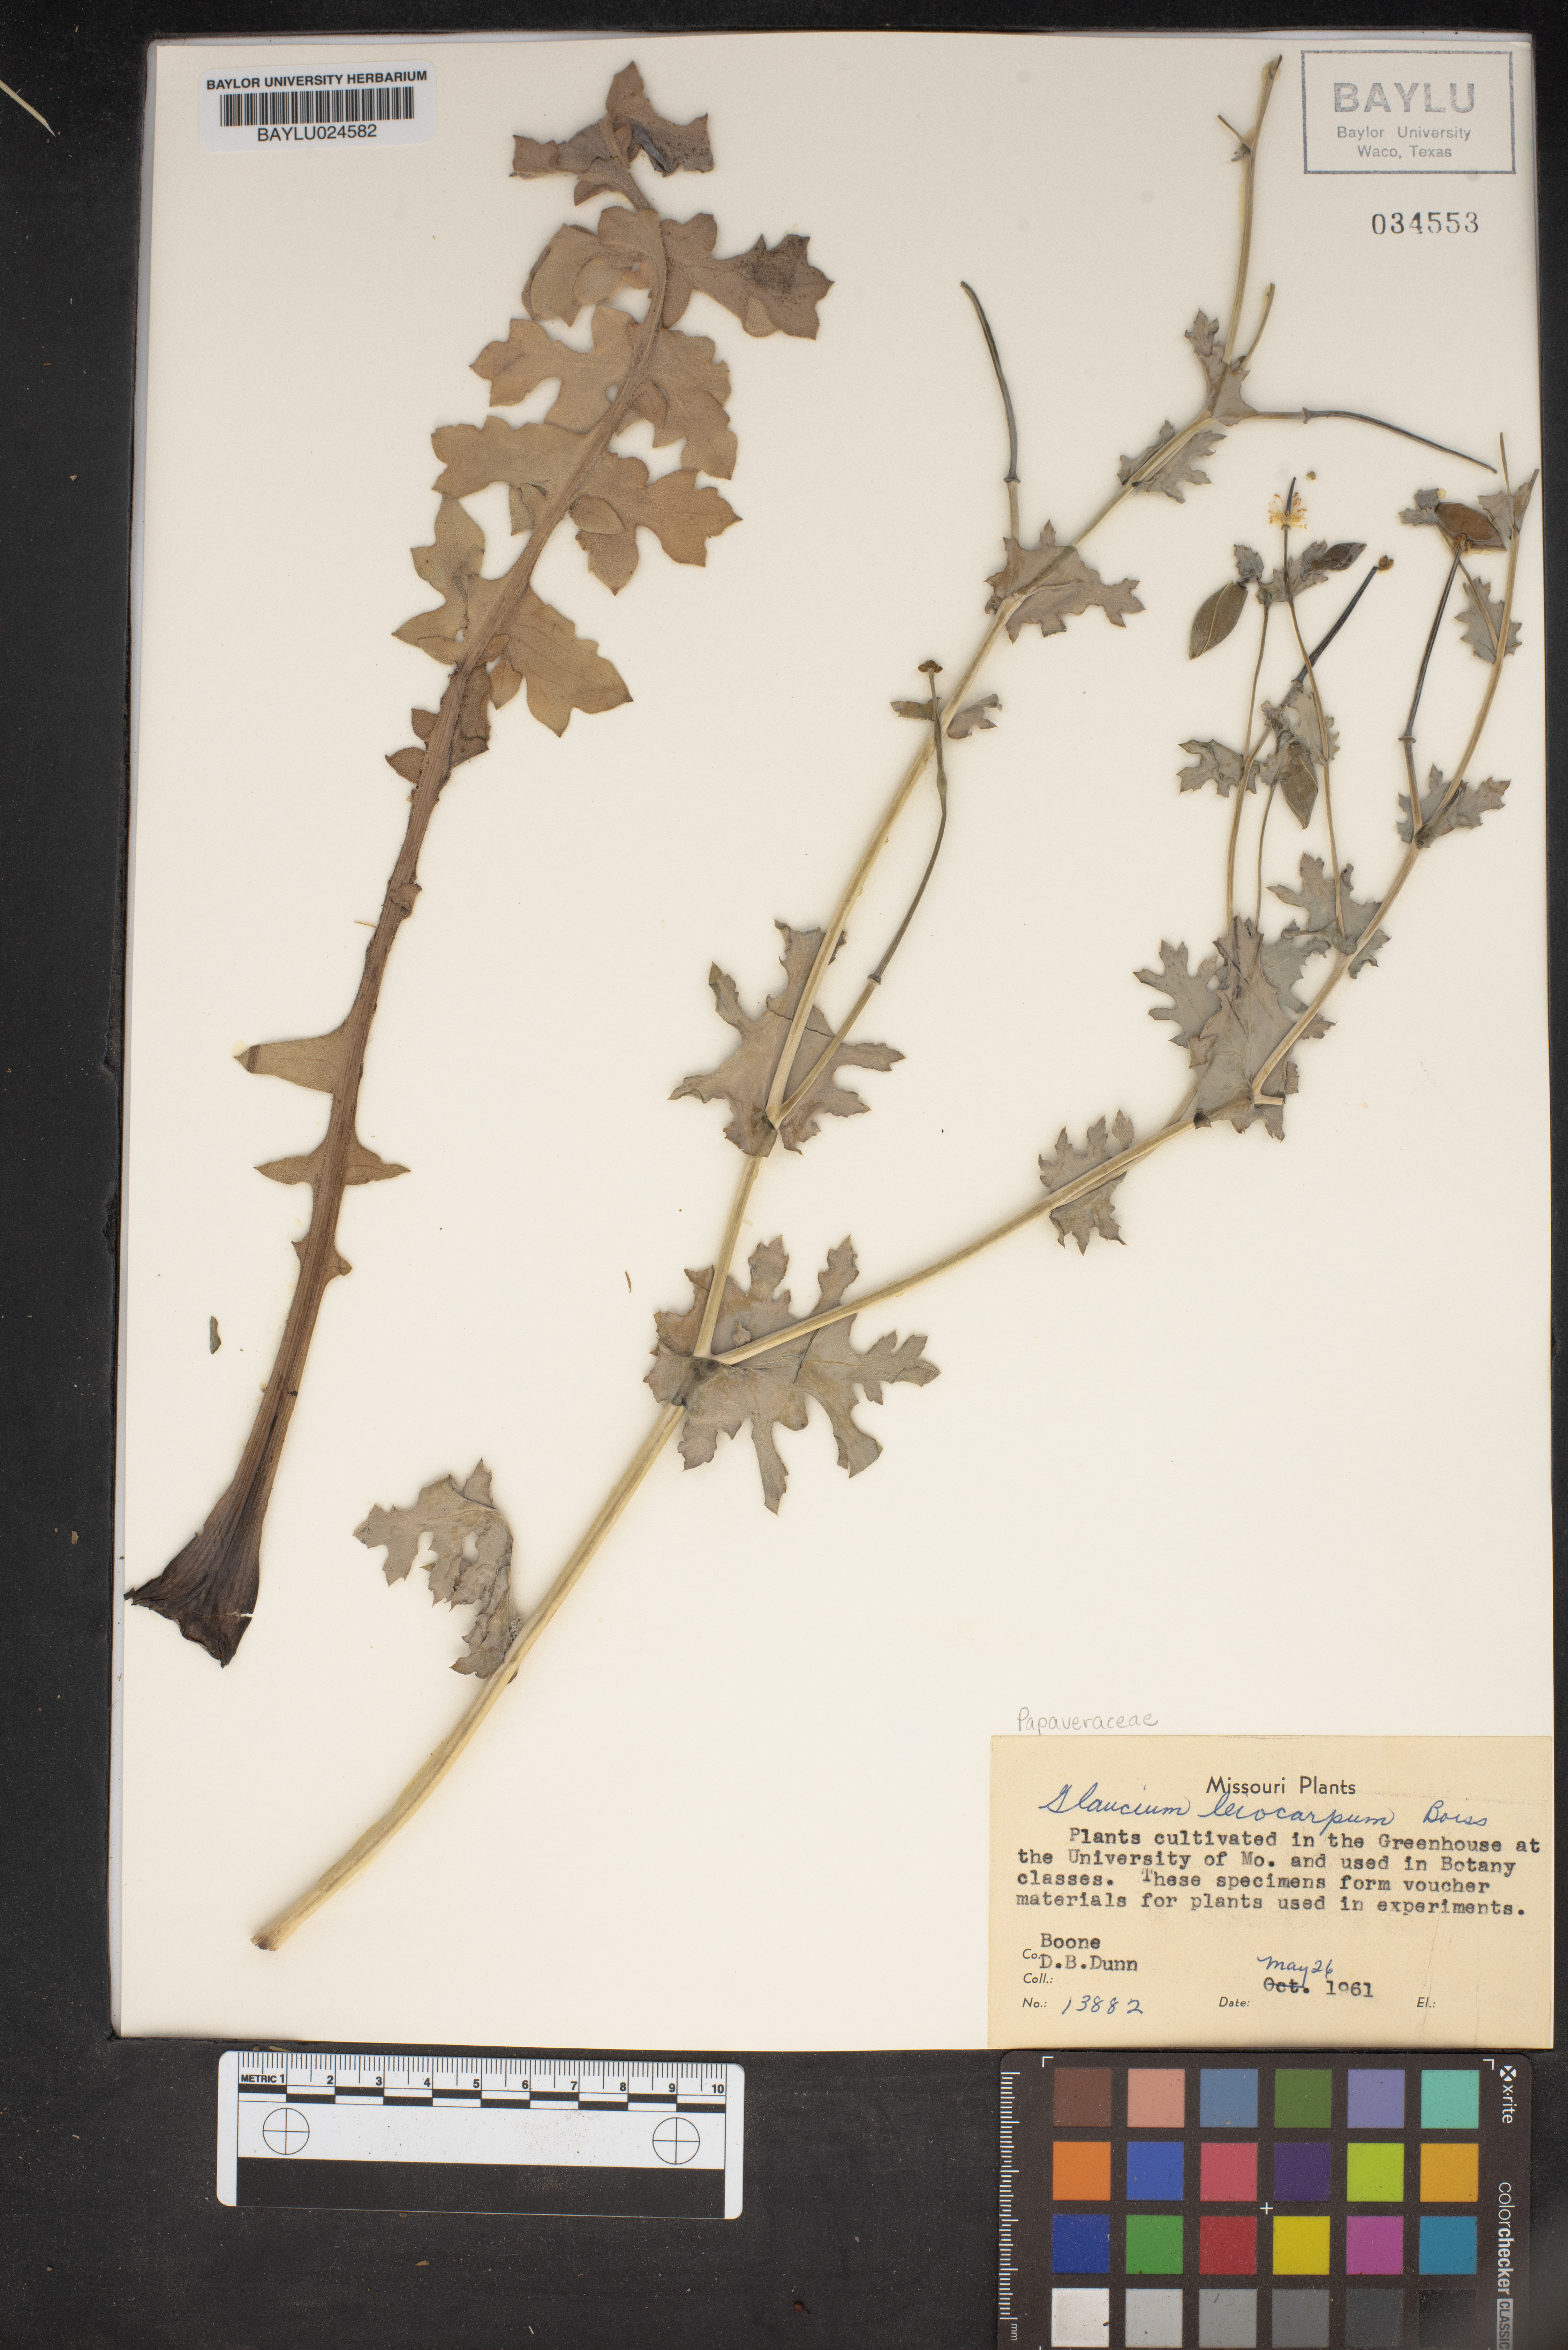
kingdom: Plantae
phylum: Tracheophyta
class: Magnoliopsida
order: Ranunculales
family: Papaveraceae
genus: Glaucium
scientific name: Glaucium oxylobum
